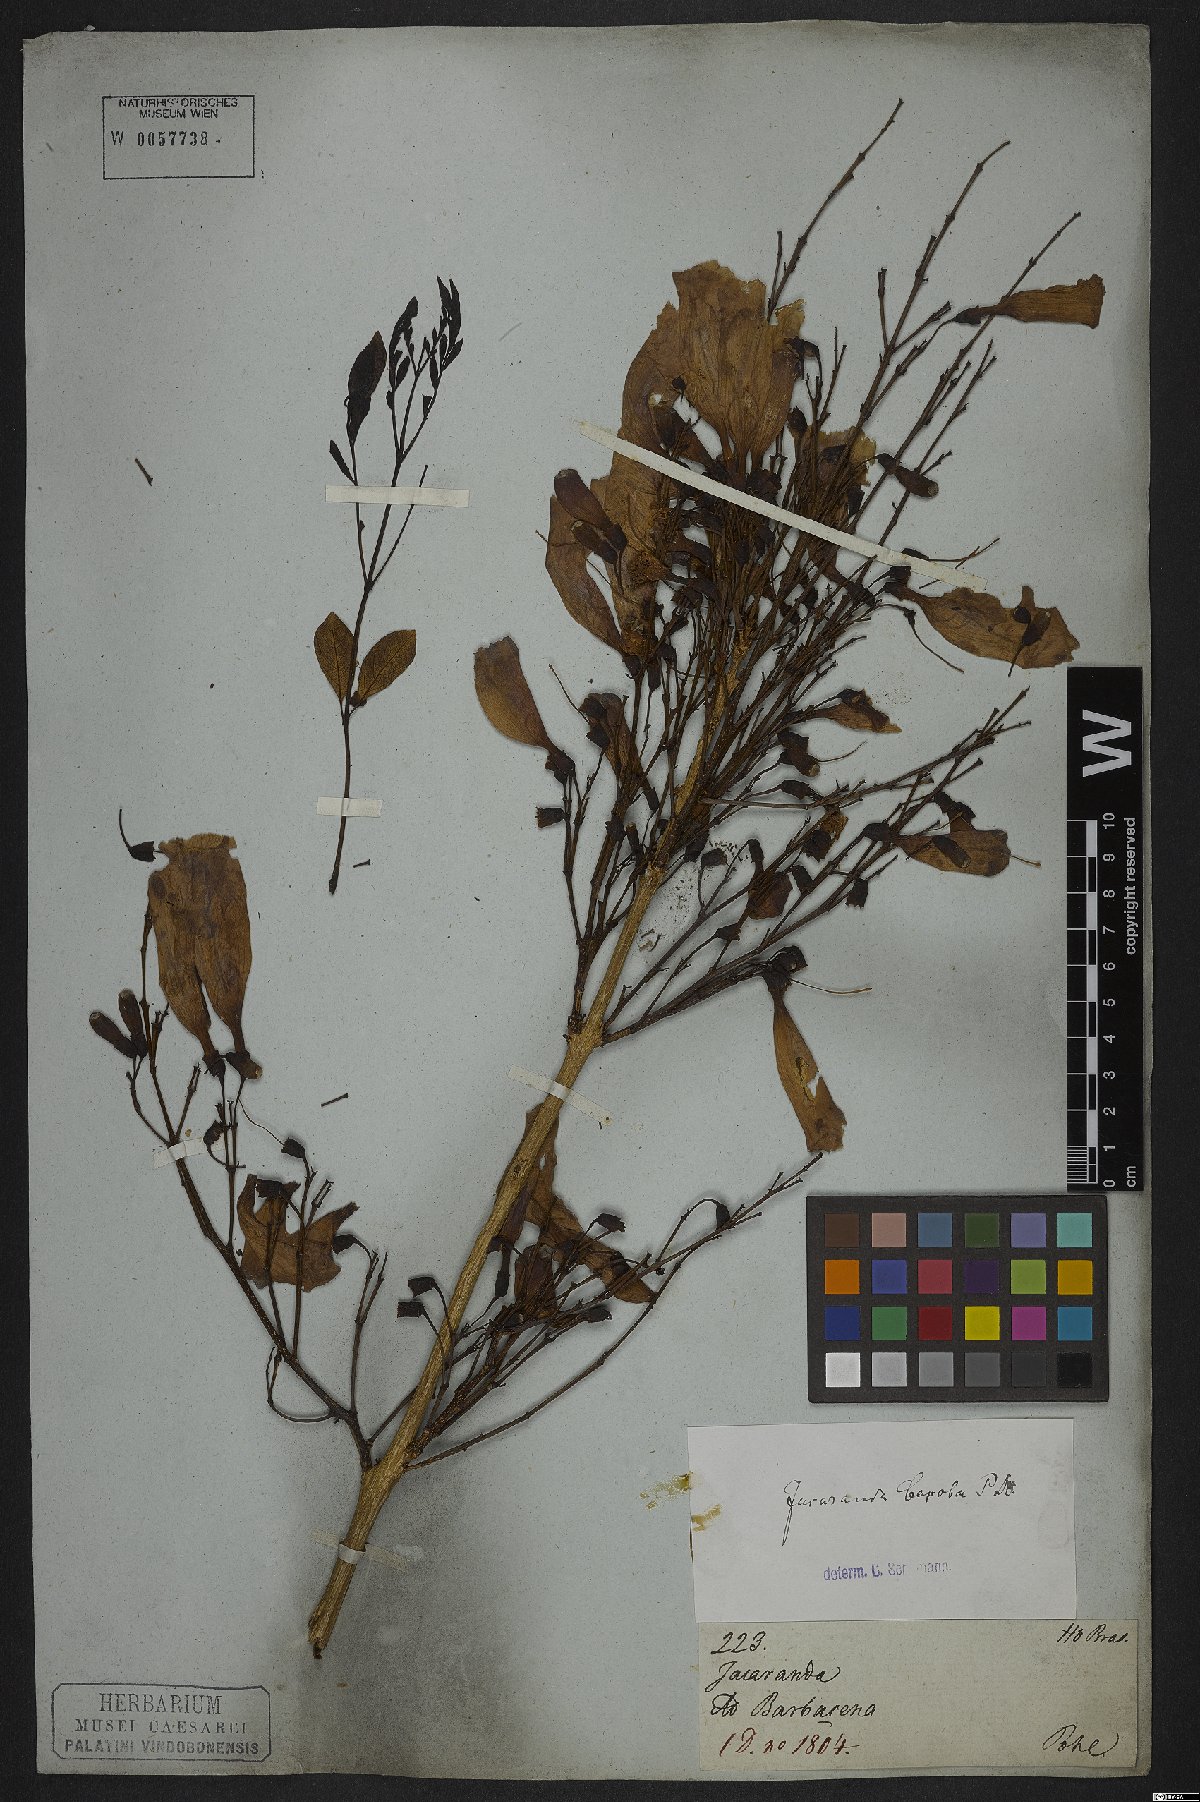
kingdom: Plantae
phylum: Tracheophyta
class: Magnoliopsida
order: Lamiales
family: Bignoniaceae
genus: Jacaranda
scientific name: Jacaranda caroba
